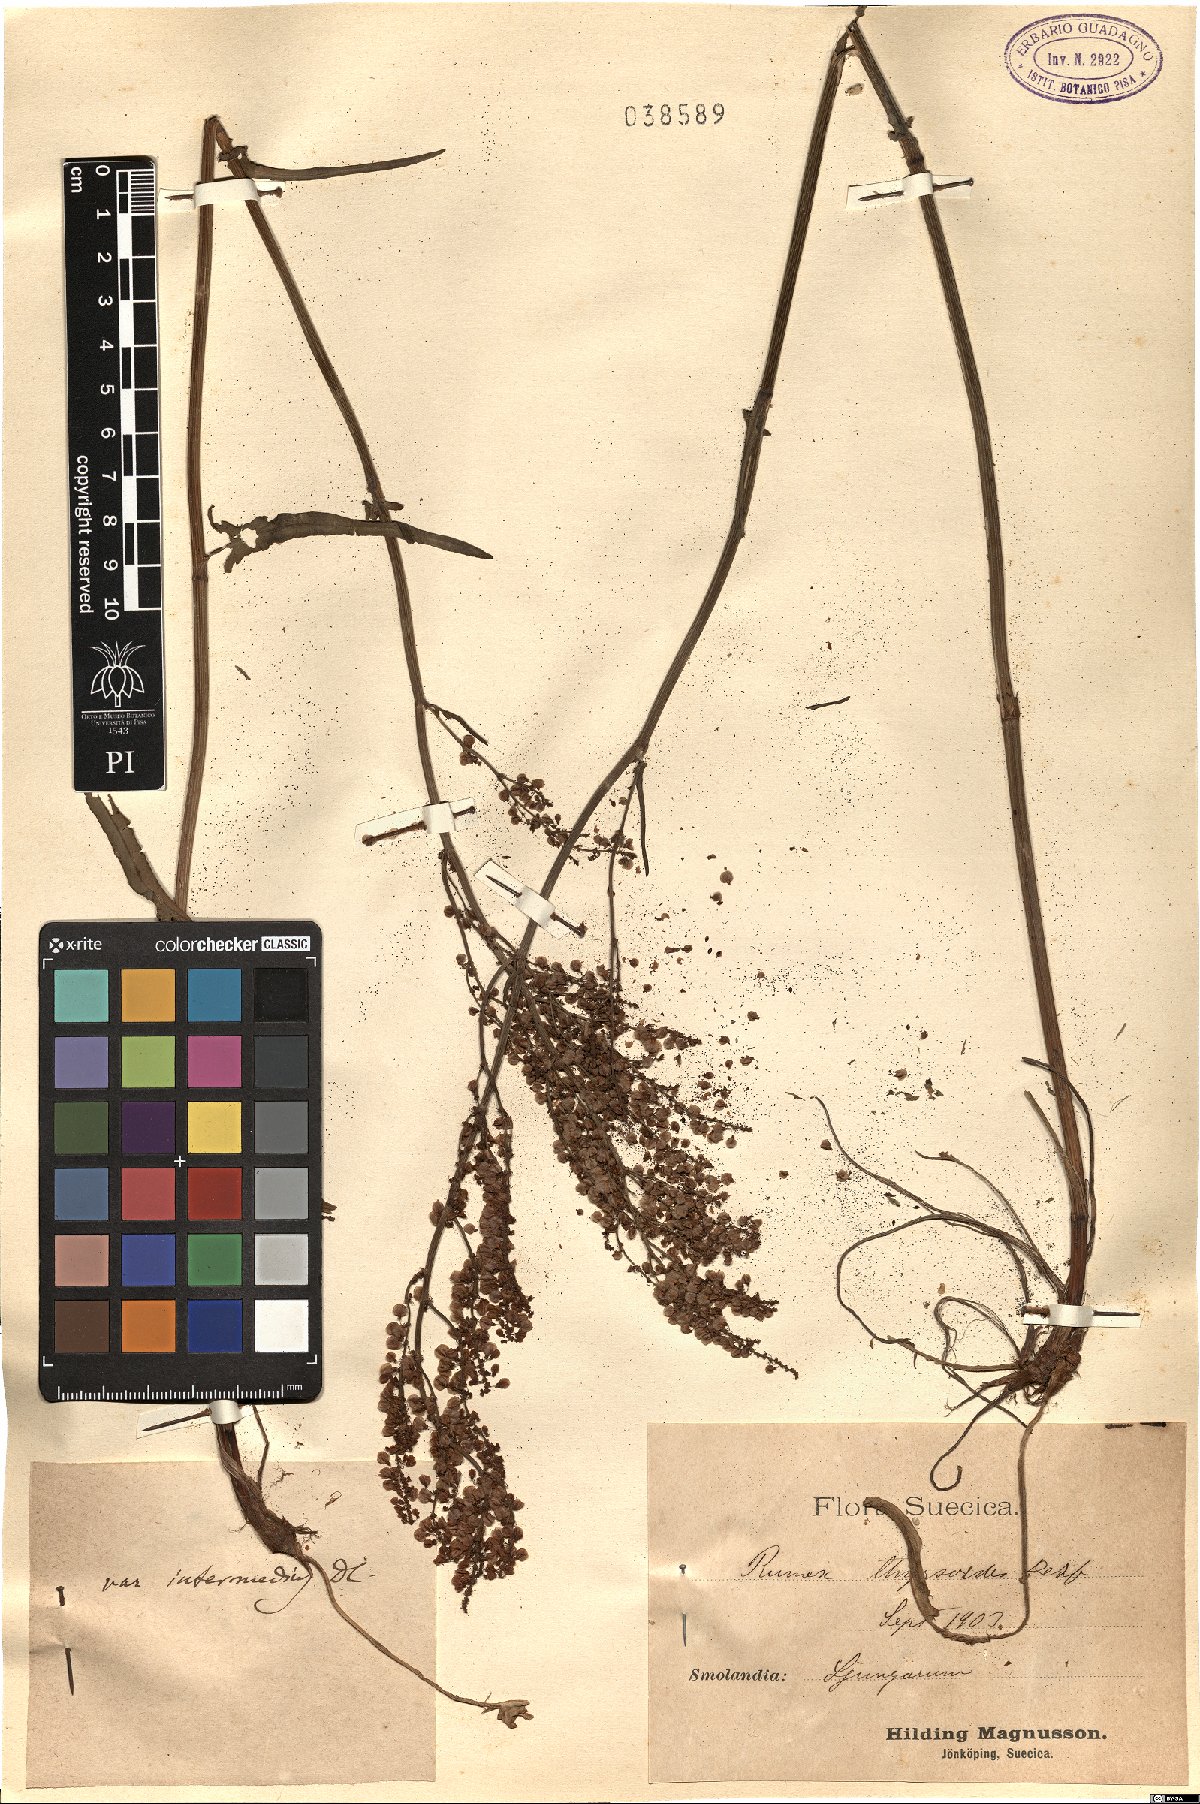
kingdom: Plantae
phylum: Tracheophyta
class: Magnoliopsida
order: Caryophyllales
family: Polygonaceae
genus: Rumex
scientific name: Rumex thyrsoides
